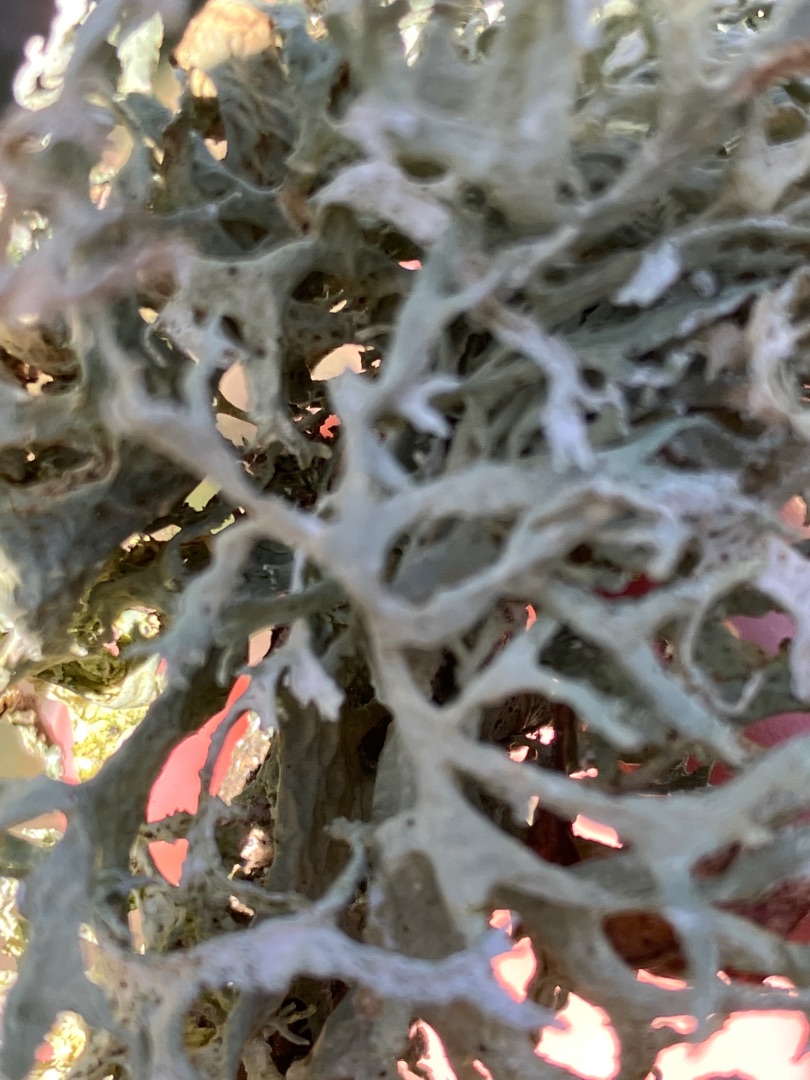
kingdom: Fungi
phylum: Ascomycota
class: Lecanoromycetes
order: Lecanorales
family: Parmeliaceae
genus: Evernia
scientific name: Evernia prunastri
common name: Almindelig slåenlav
